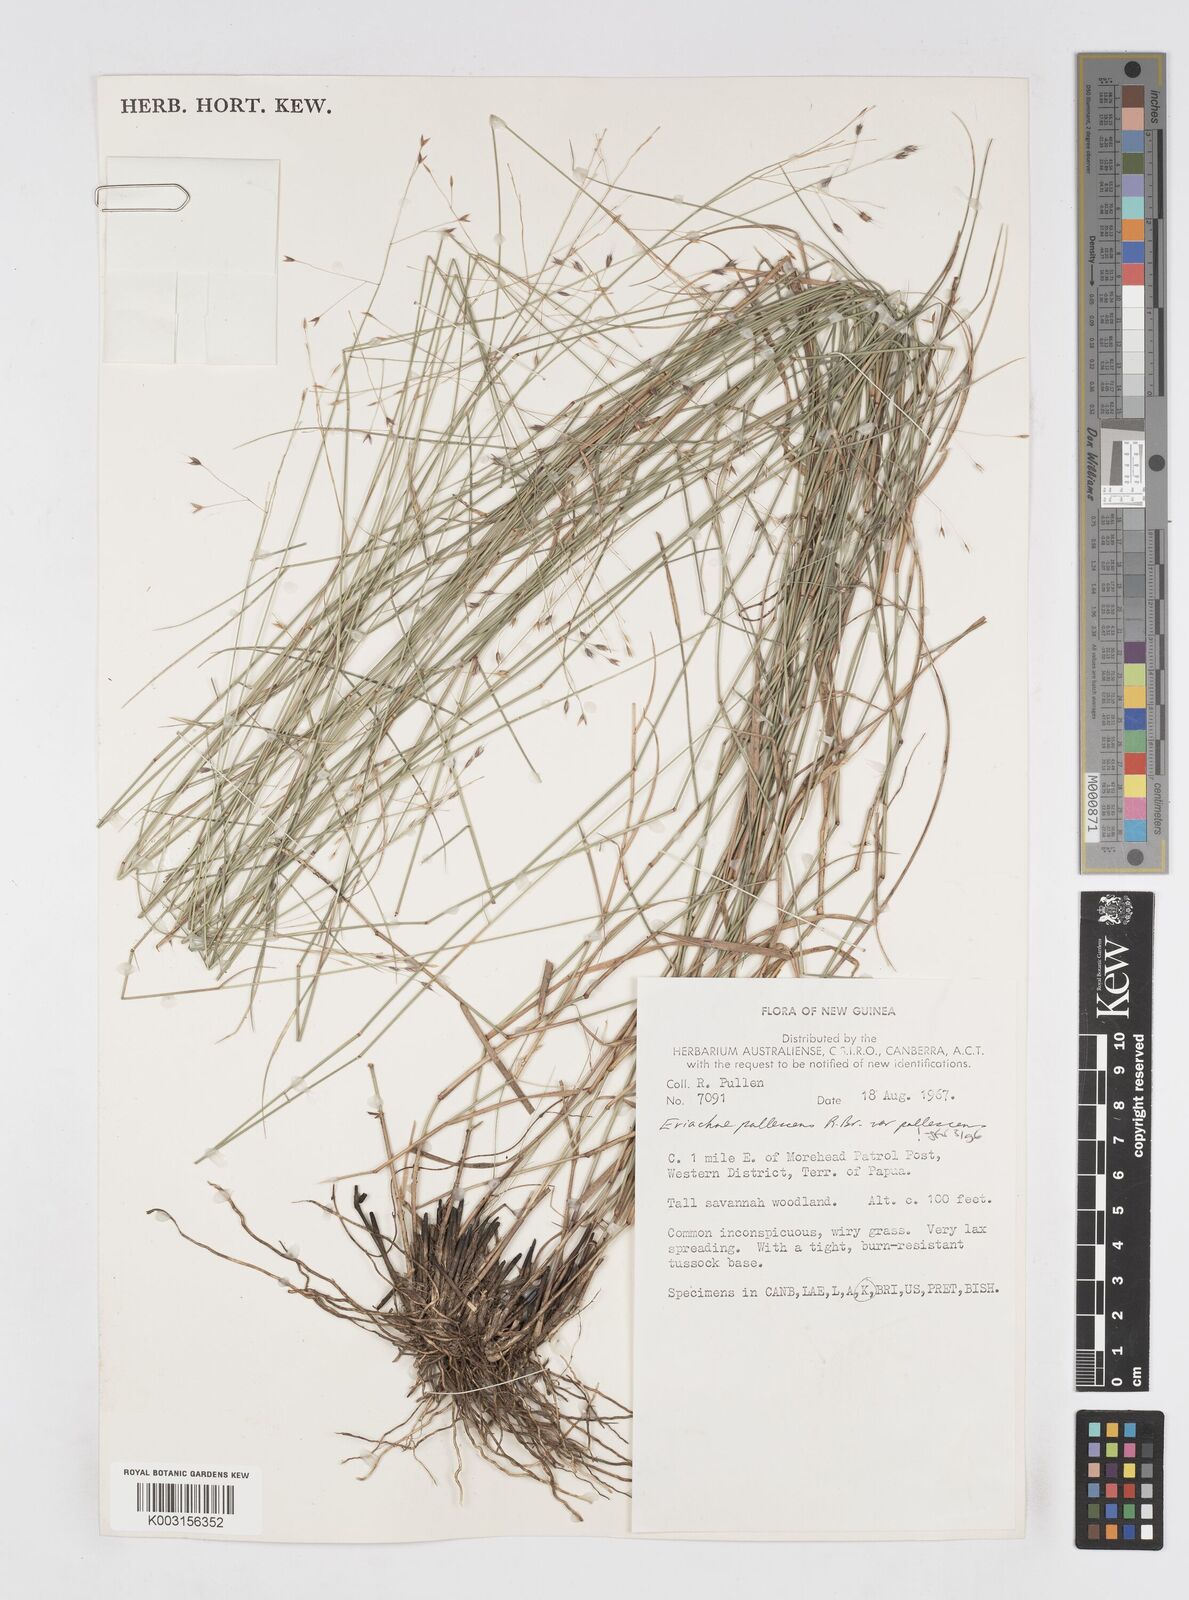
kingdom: Plantae
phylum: Tracheophyta
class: Liliopsida
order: Poales
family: Poaceae
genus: Eriachne
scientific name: Eriachne pallescens
